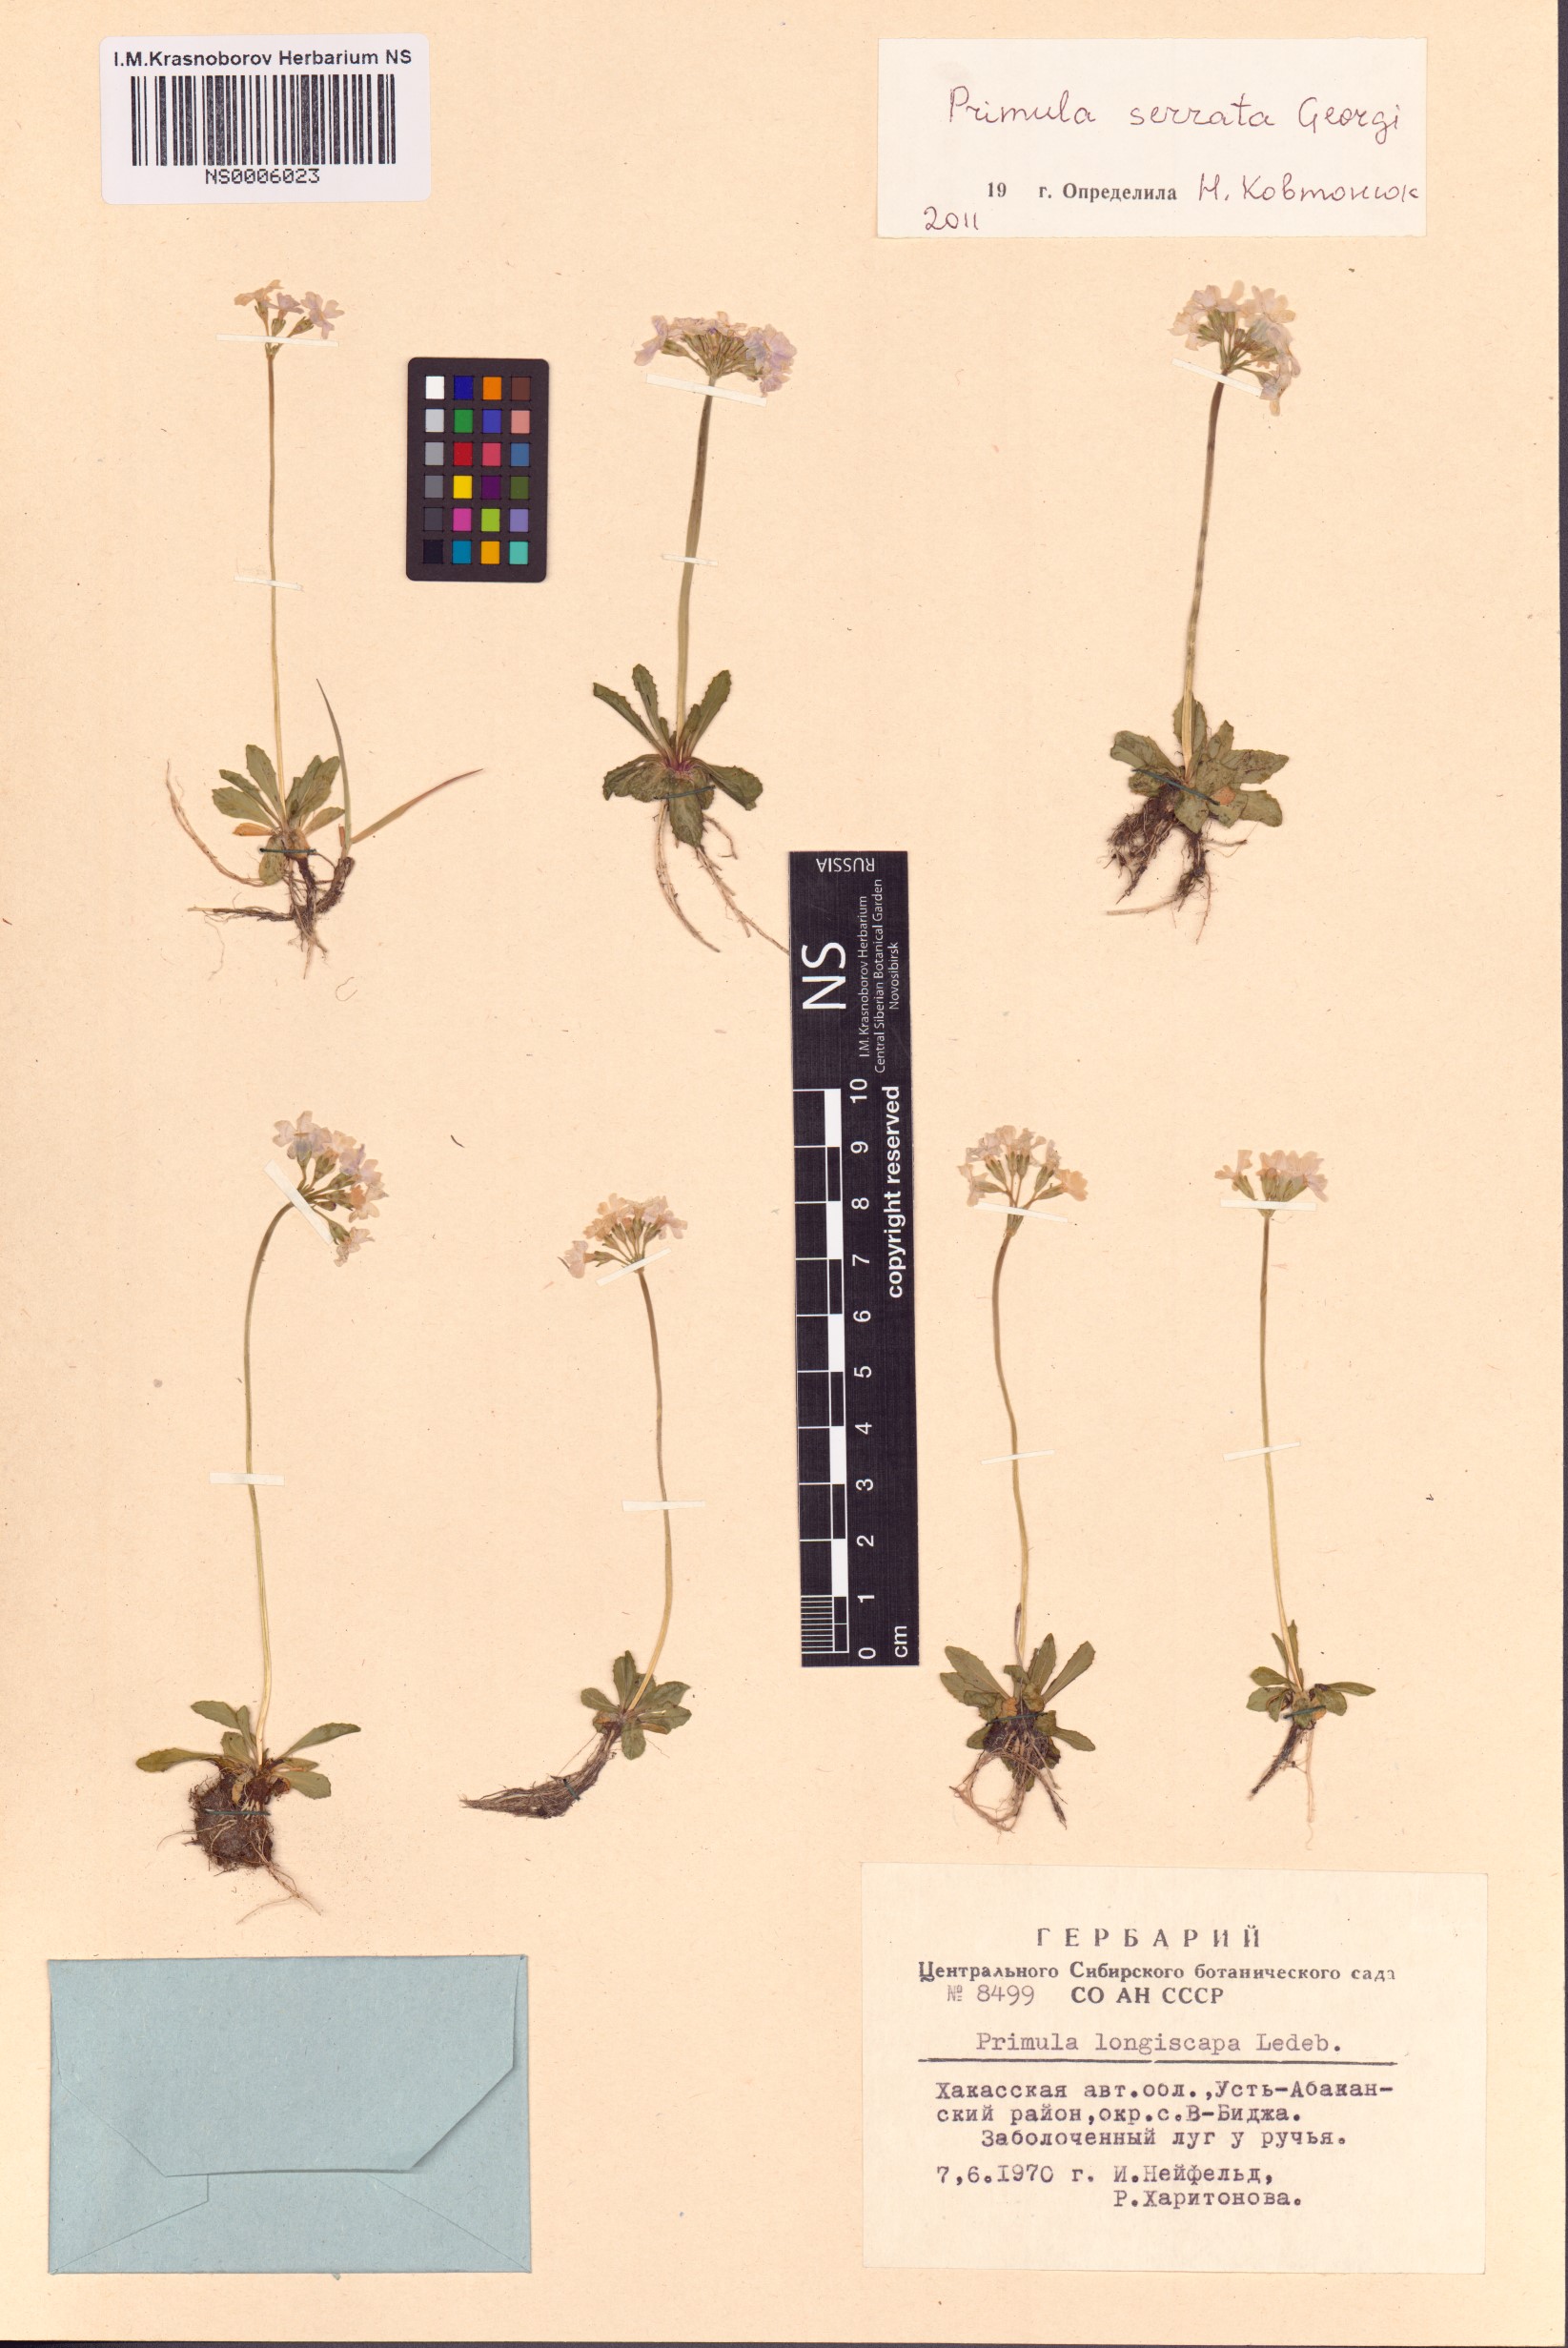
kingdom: Plantae
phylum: Tracheophyta
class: Magnoliopsida
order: Ericales
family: Primulaceae
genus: Primula
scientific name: Primula serrata
